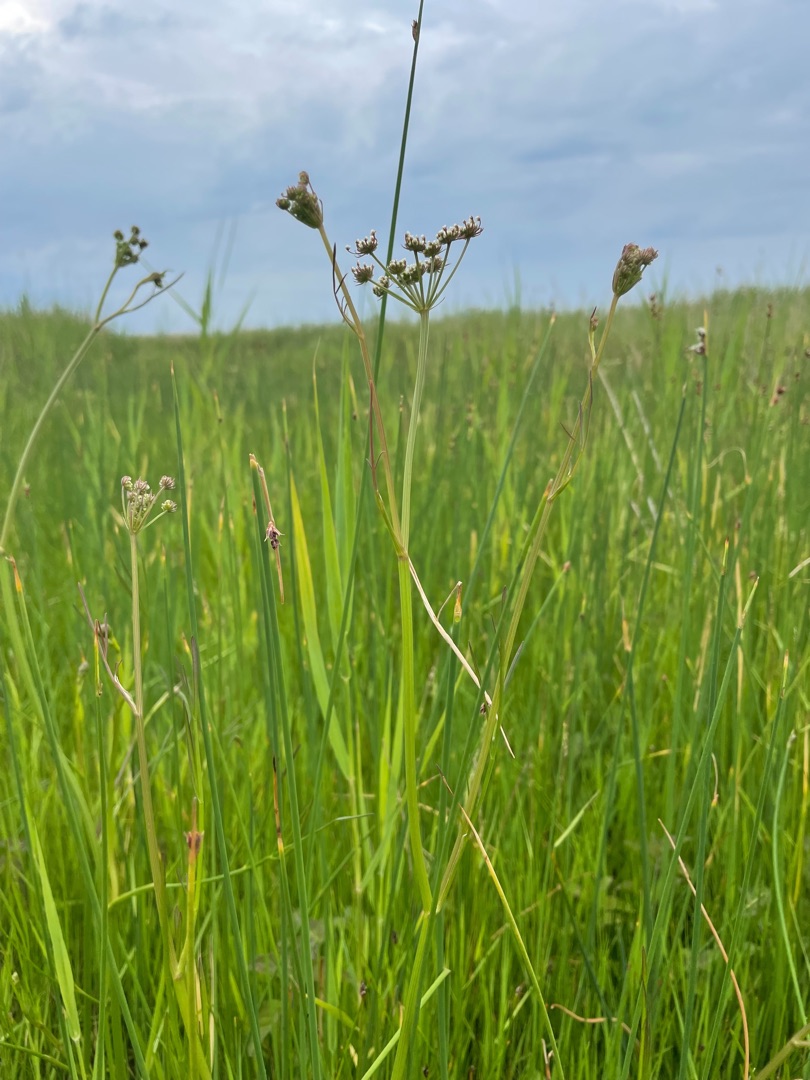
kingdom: Plantae
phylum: Tracheophyta
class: Magnoliopsida
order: Apiales
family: Apiaceae
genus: Oenanthe
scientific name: Oenanthe lachenalii
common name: Eng-klaseskærm
